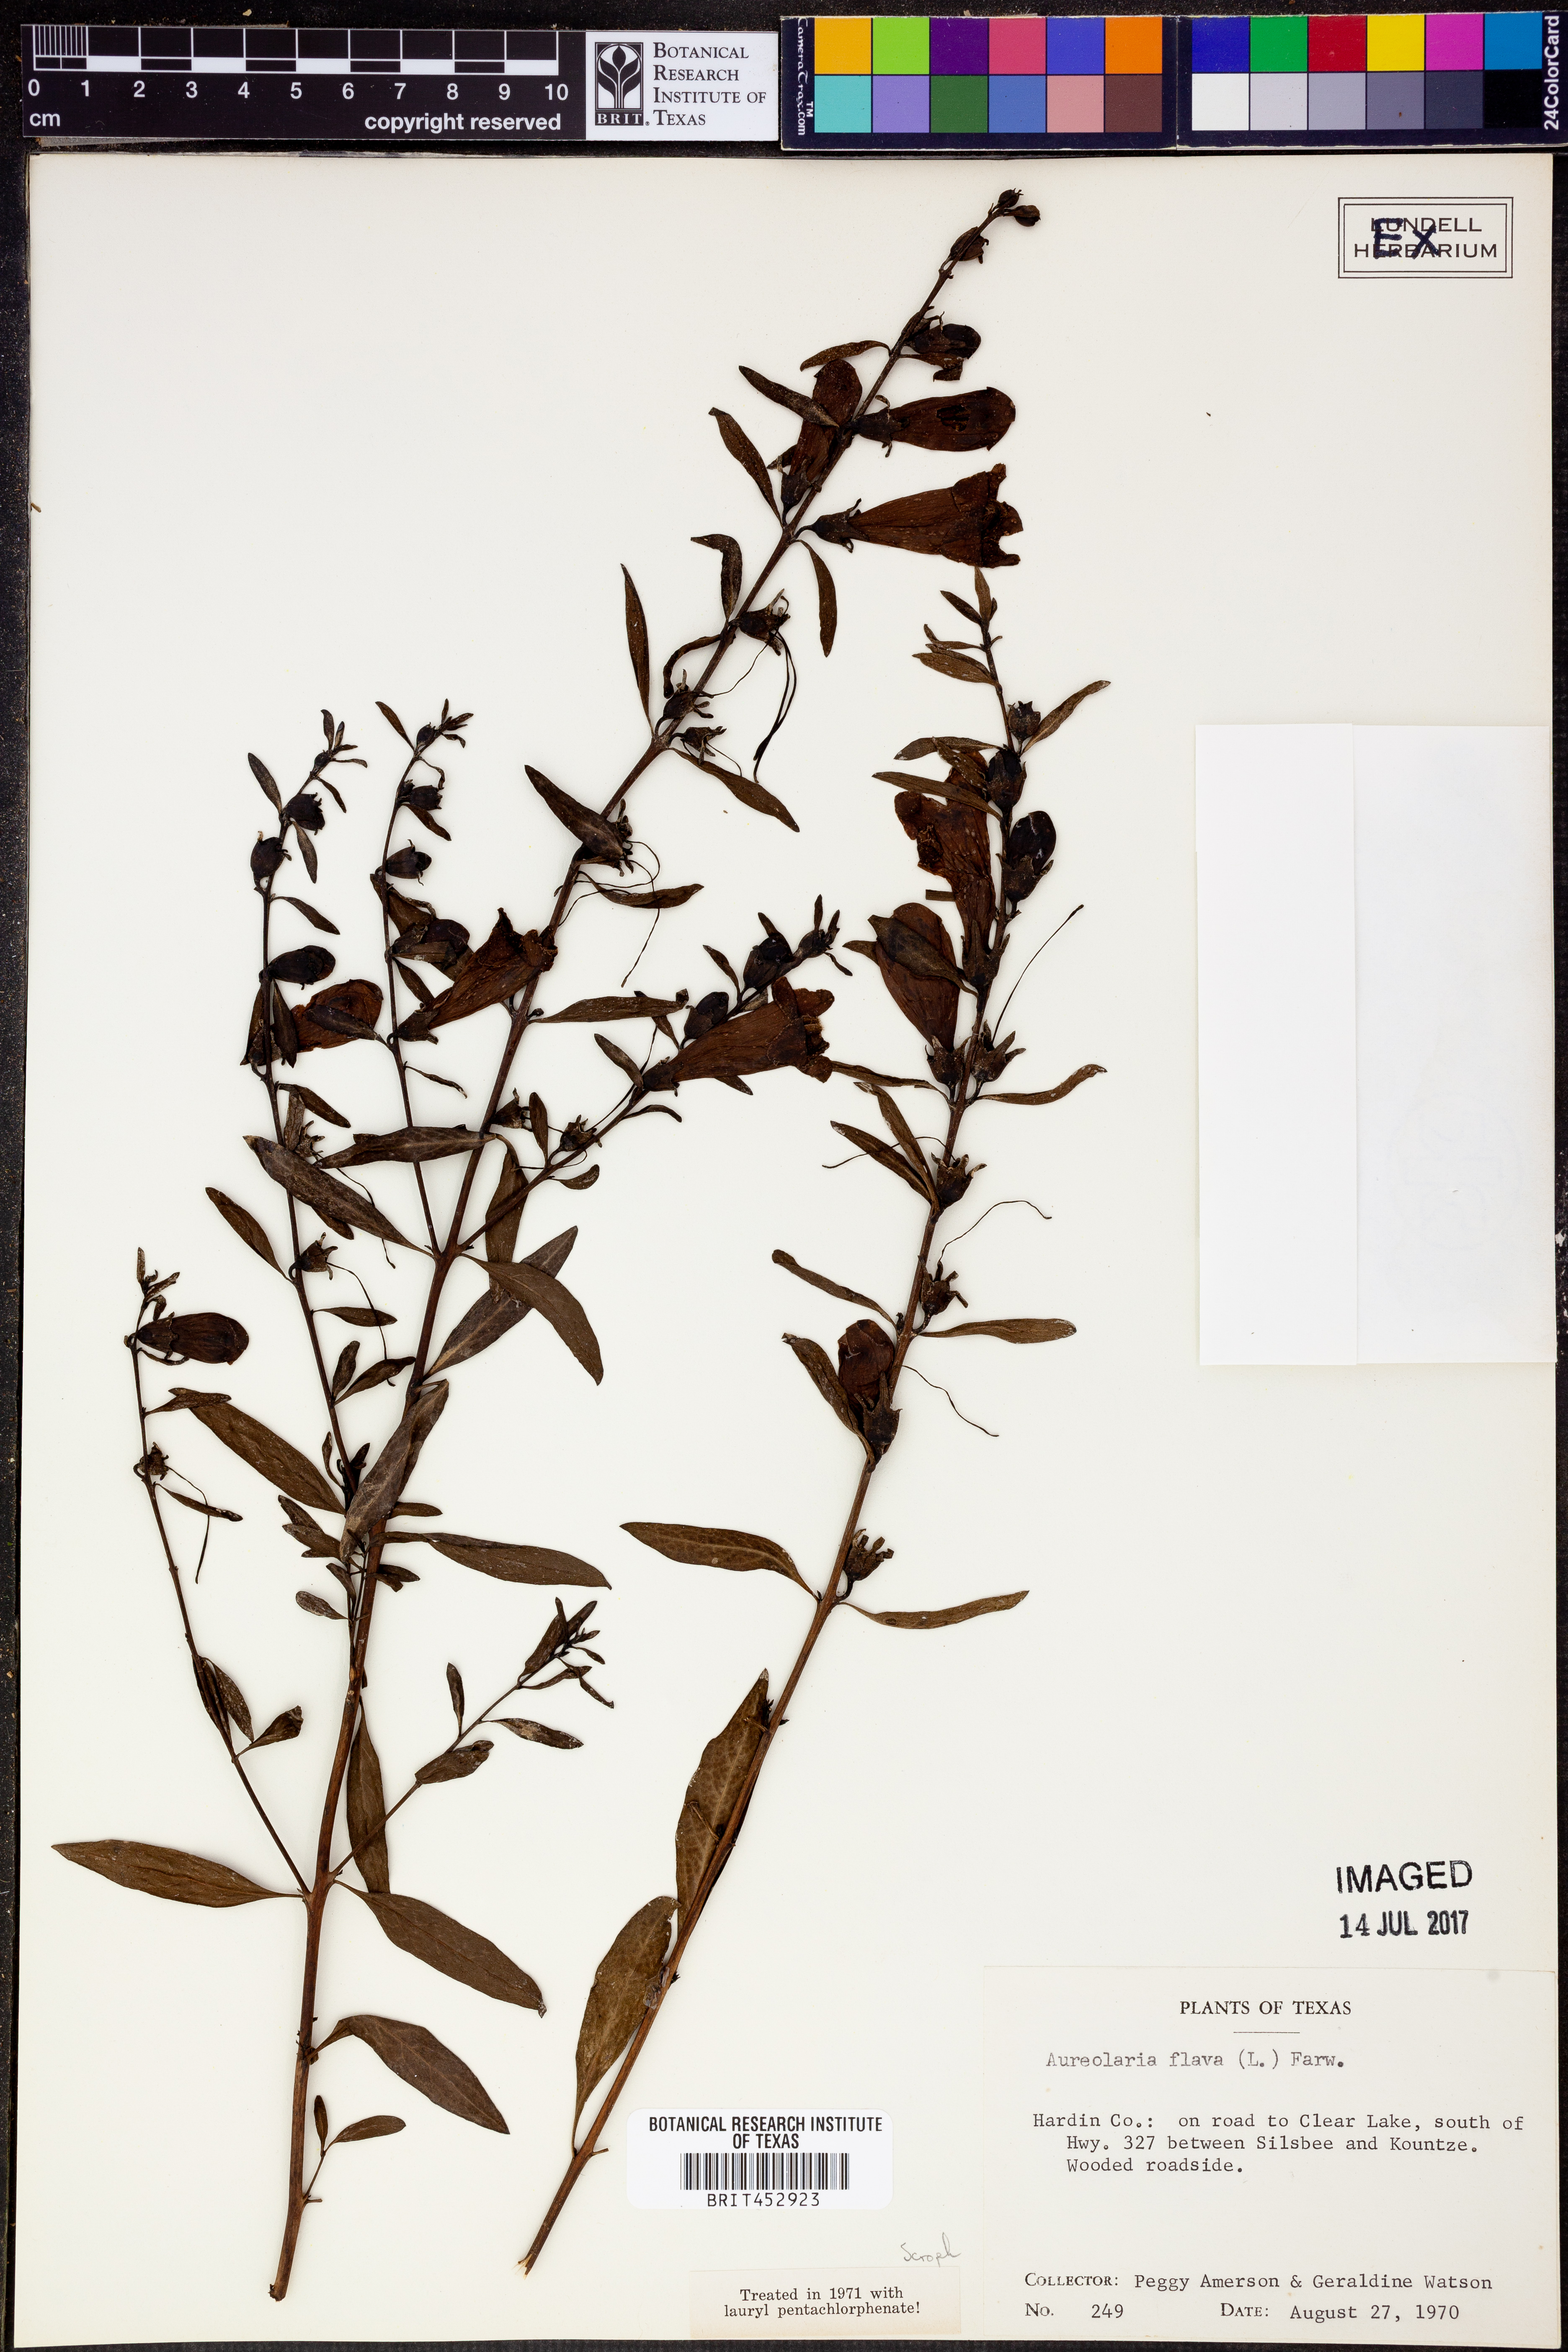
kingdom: Plantae
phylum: Tracheophyta
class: Magnoliopsida
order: Lamiales
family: Orobanchaceae
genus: Aureolaria
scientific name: Aureolaria flava
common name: Smooth false foxglove
